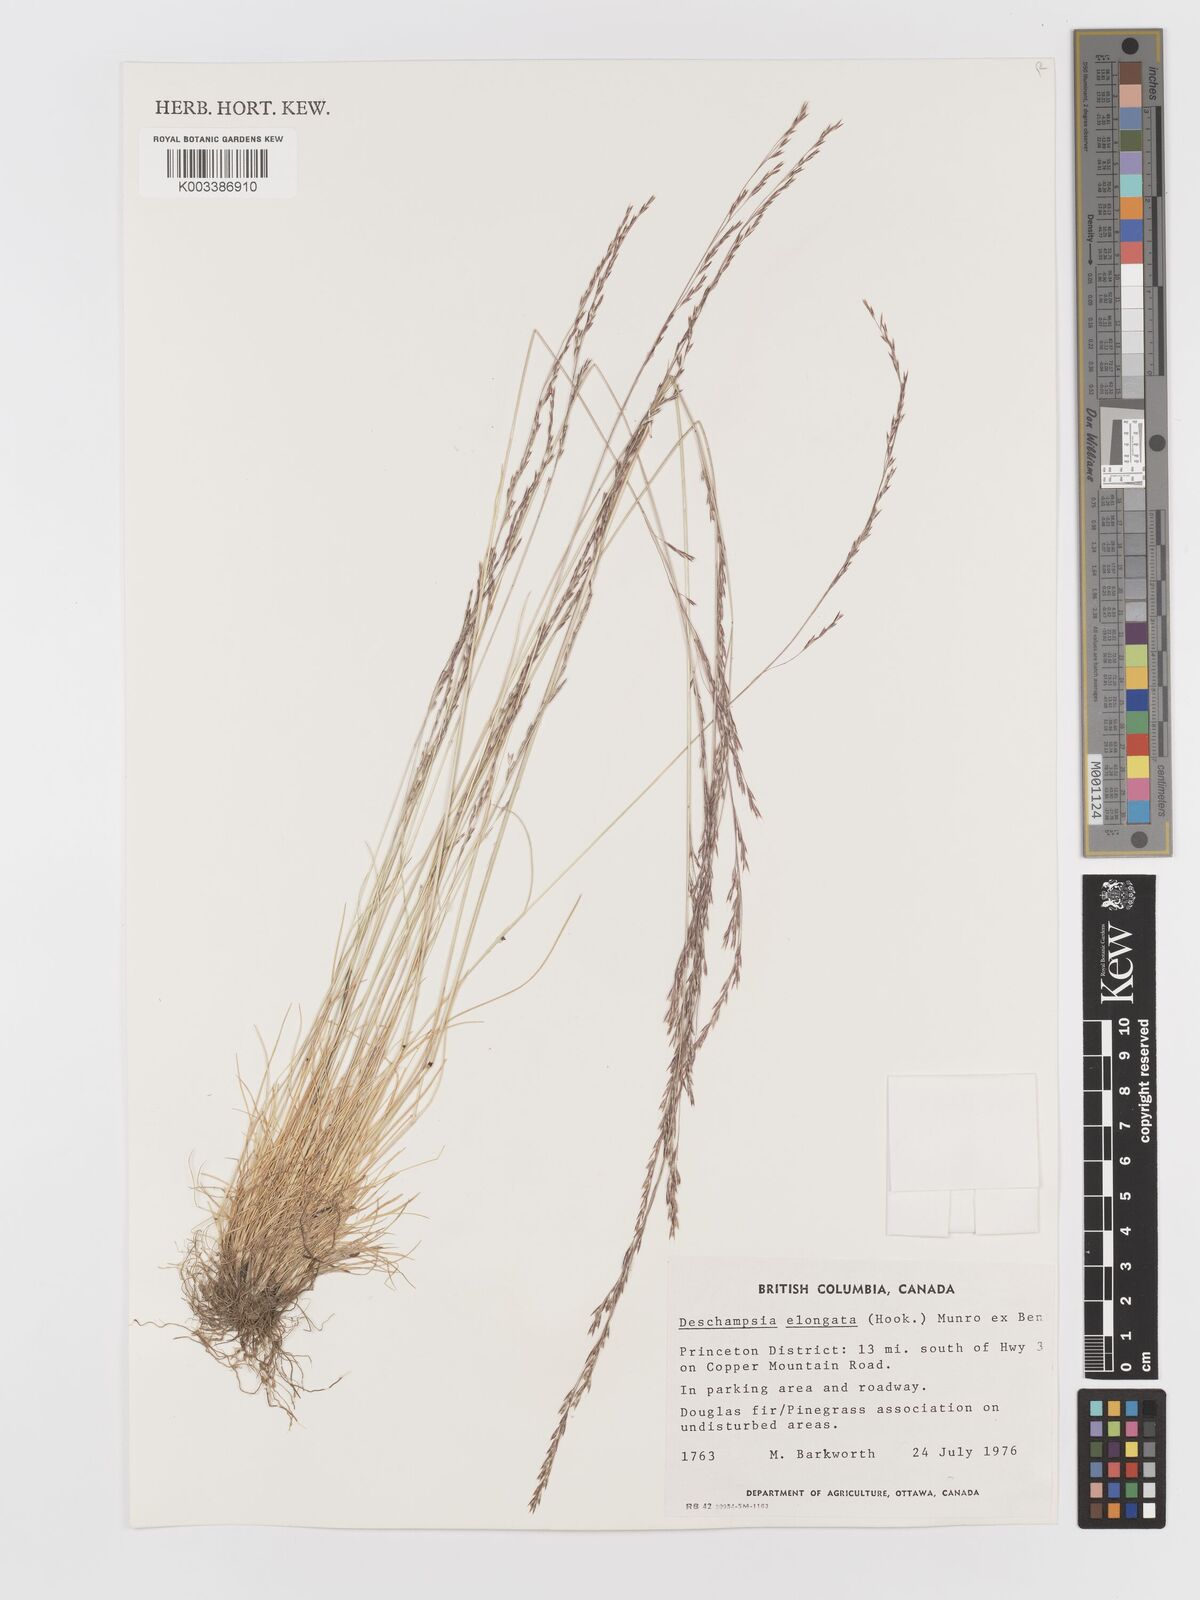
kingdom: Plantae
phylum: Tracheophyta
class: Liliopsida
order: Poales
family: Poaceae
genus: Deschampsia
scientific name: Deschampsia elongata
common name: Slender hairgrass
